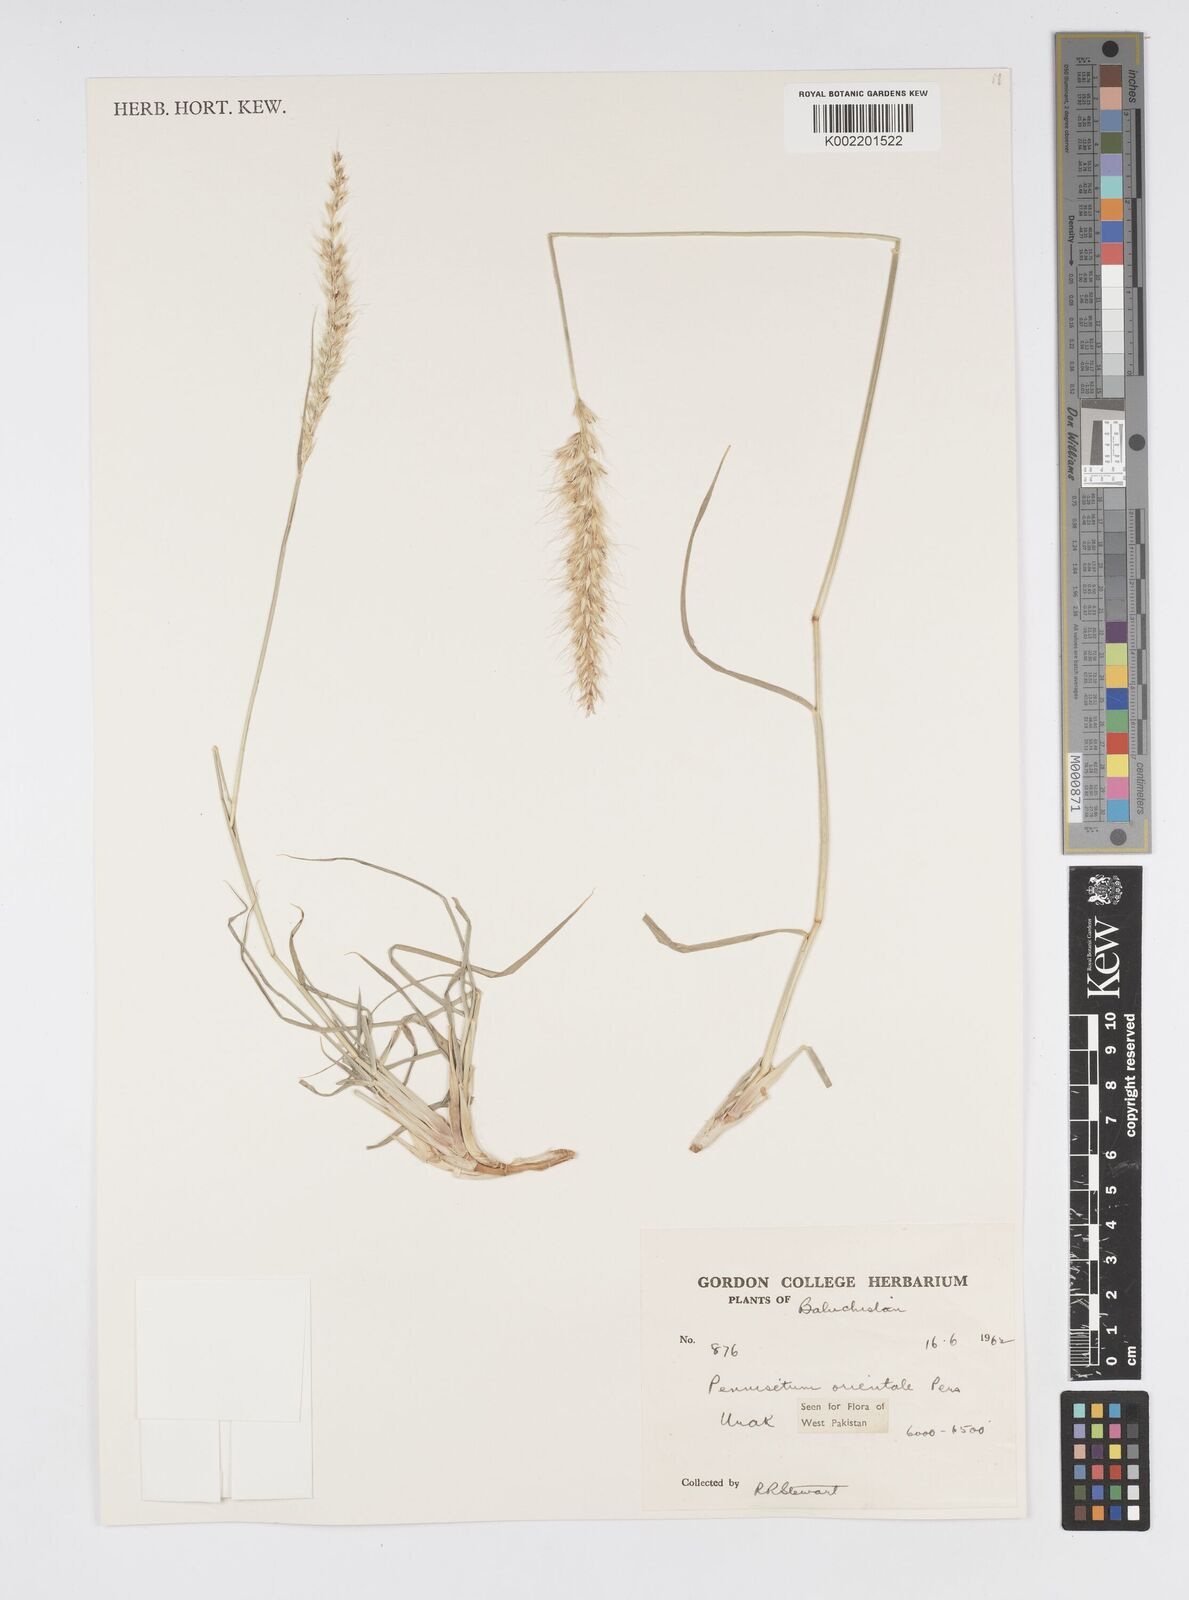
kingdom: Plantae
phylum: Tracheophyta
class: Liliopsida
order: Poales
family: Poaceae
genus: Cenchrus
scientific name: Cenchrus orientalis
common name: Oriental fountain grass
